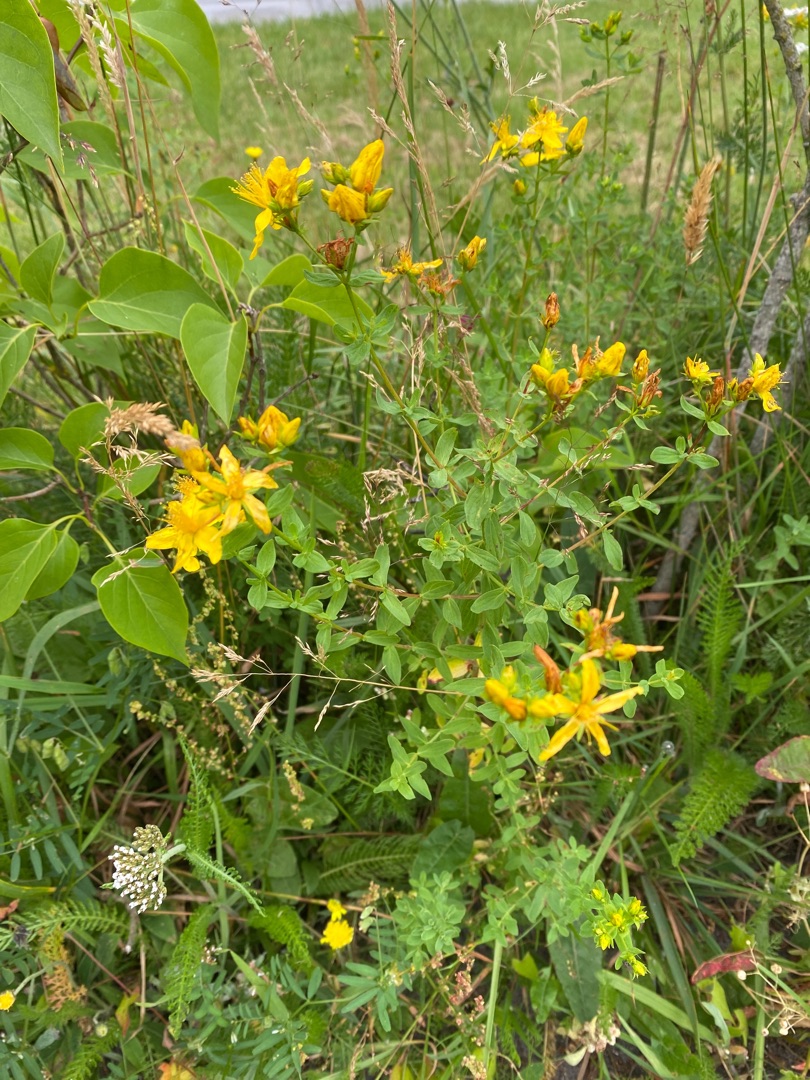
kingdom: Plantae
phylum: Tracheophyta
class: Magnoliopsida
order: Malpighiales
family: Hypericaceae
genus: Hypericum
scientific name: Hypericum perforatum
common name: Prikbladet perikon
